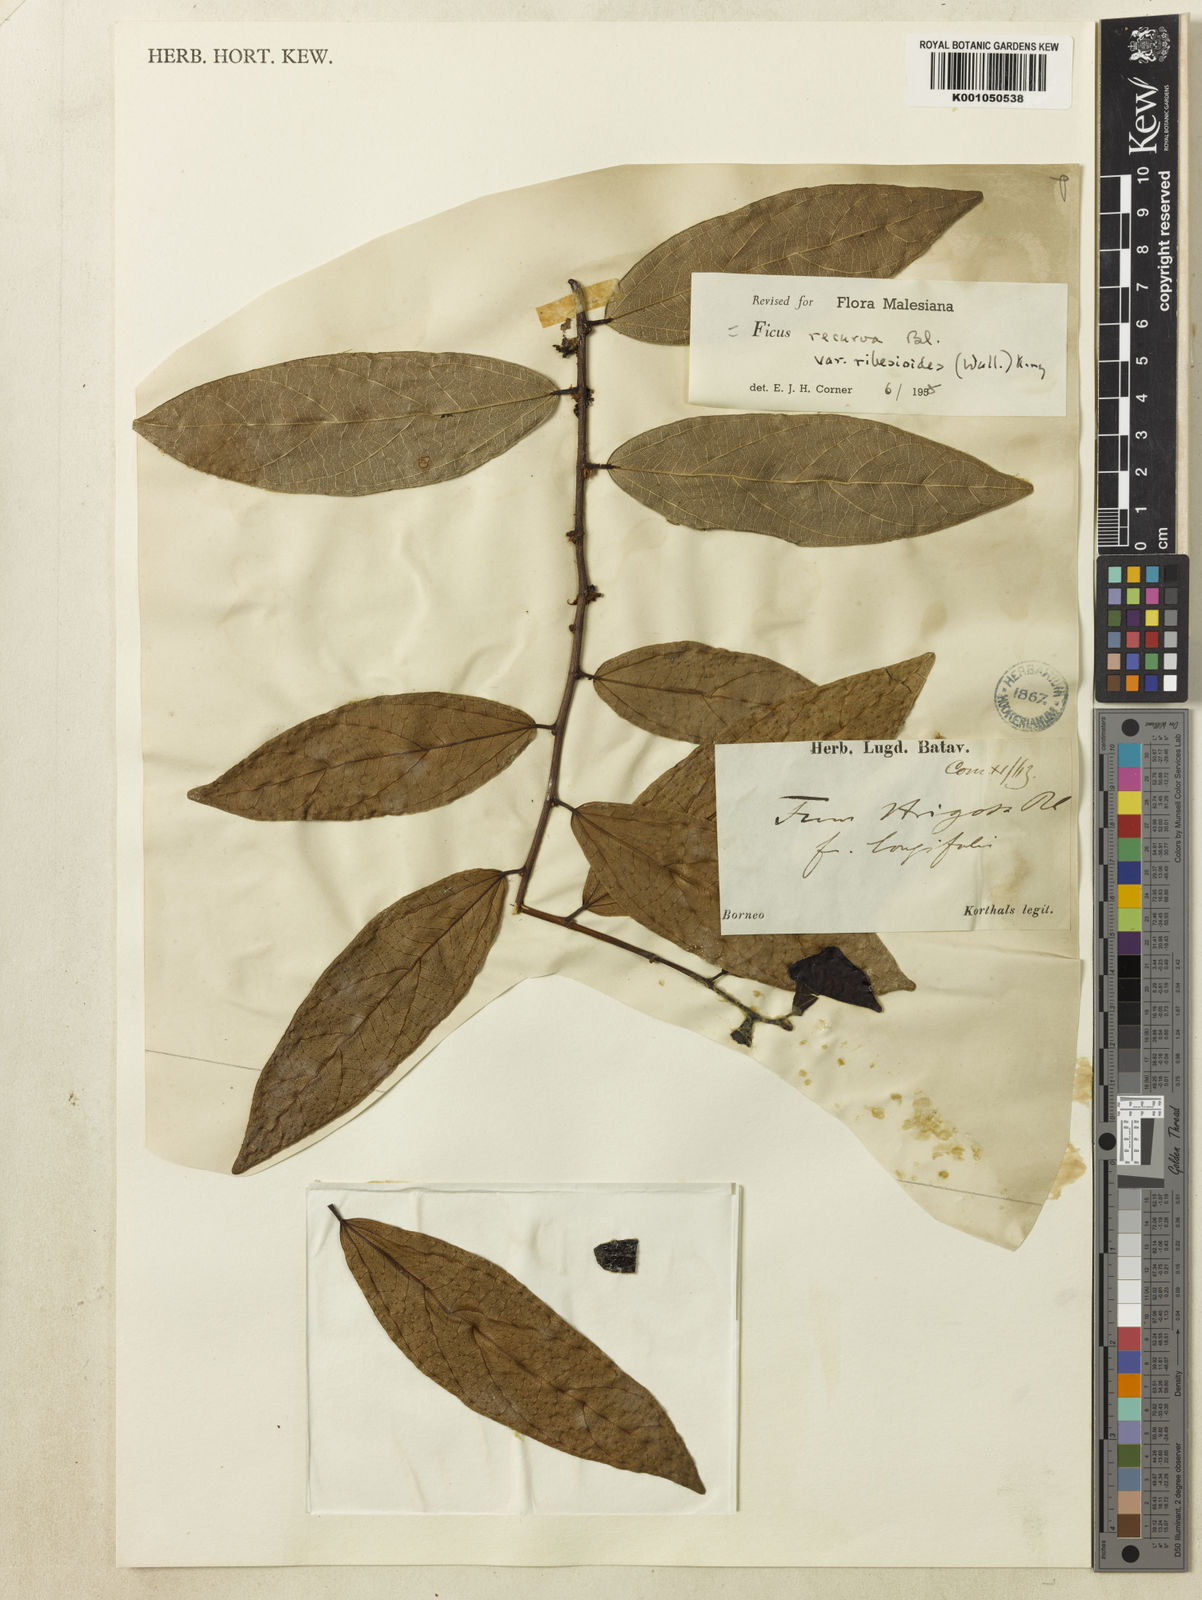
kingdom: Plantae
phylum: Tracheophyta
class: Magnoliopsida
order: Rosales
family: Moraceae
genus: Ficus
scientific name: Ficus recurva
